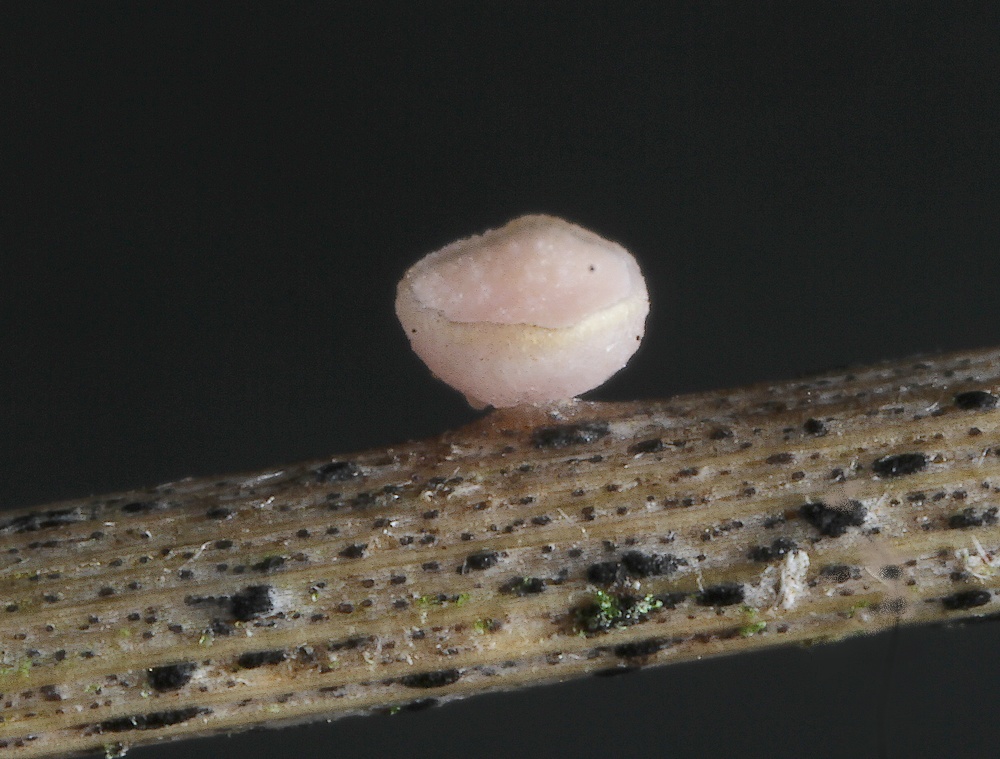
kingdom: Fungi
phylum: Ascomycota
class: Leotiomycetes
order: Helotiales
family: Helotiaceae
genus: Cyathicula
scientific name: Cyathicula culmicola
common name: græs-stilkskive
